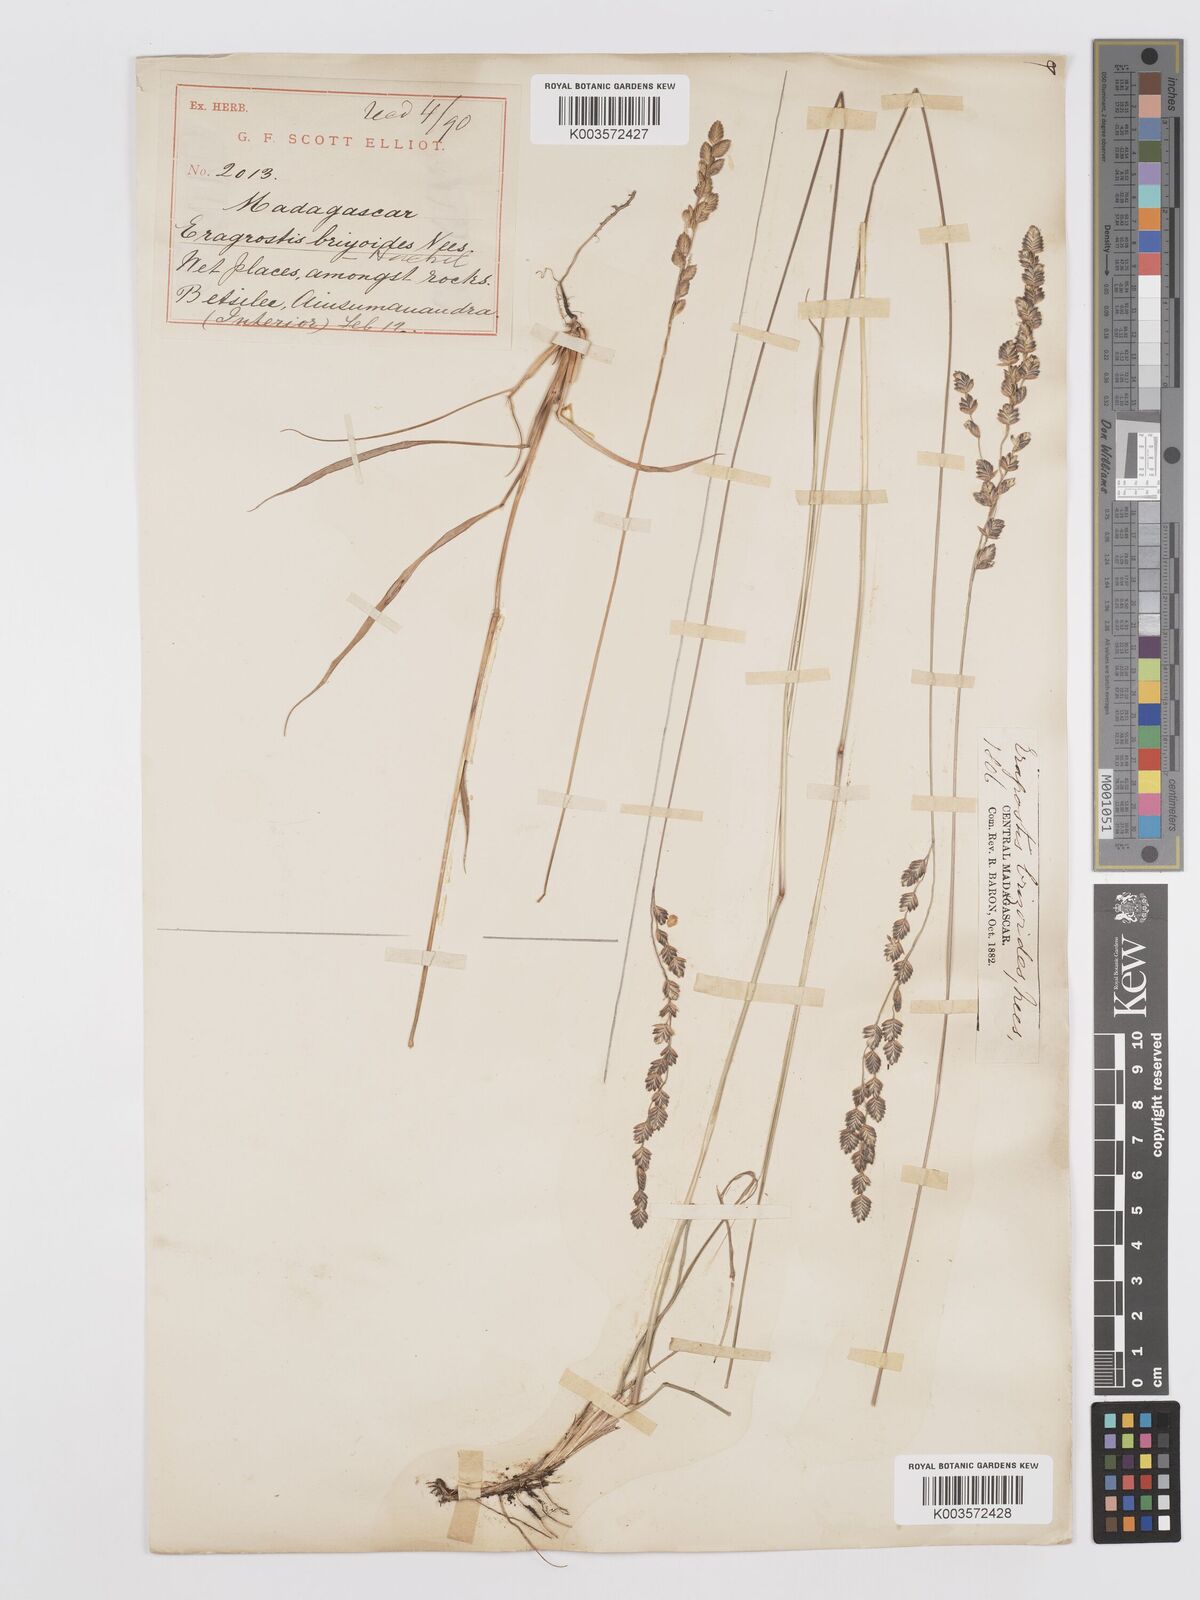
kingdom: Plantae
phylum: Tracheophyta
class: Liliopsida
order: Poales
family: Poaceae
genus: Eragrostis
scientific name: Eragrostis capensis
